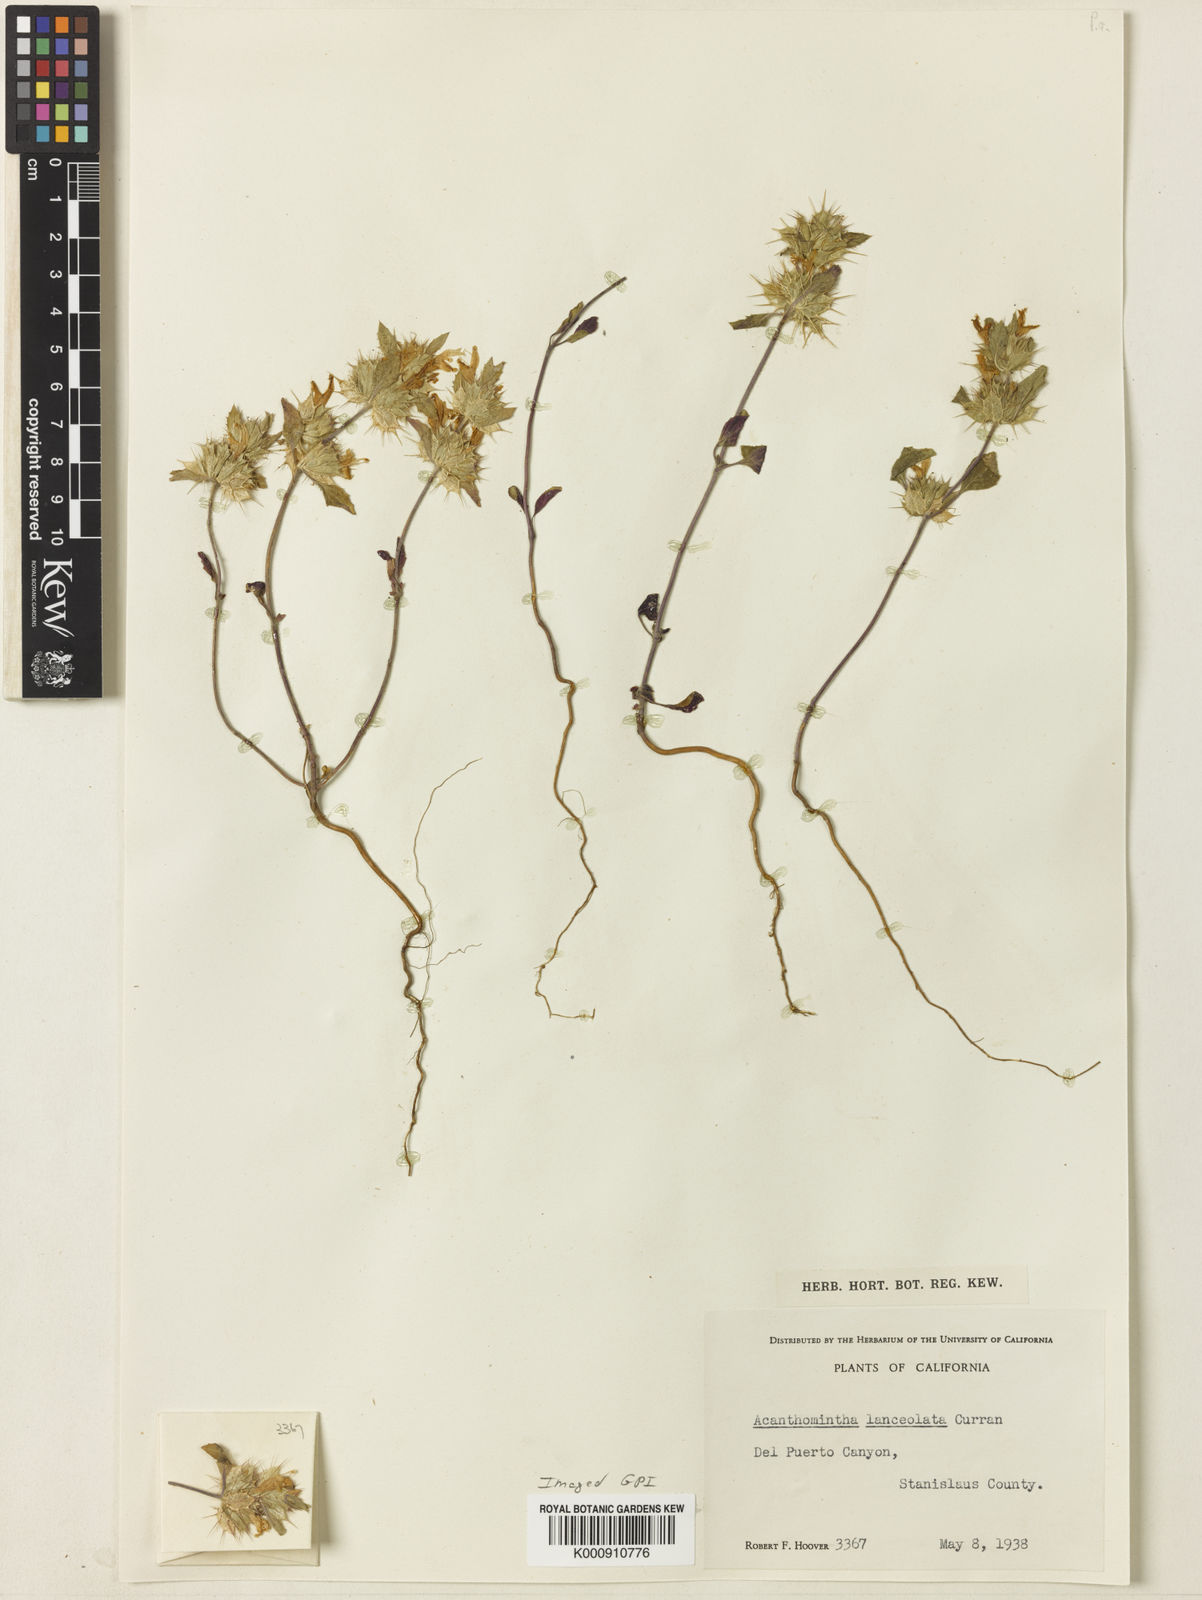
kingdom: Plantae
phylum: Tracheophyta
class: Magnoliopsida
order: Lamiales
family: Lamiaceae
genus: Acanthomintha
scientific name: Acanthomintha lanceolata
